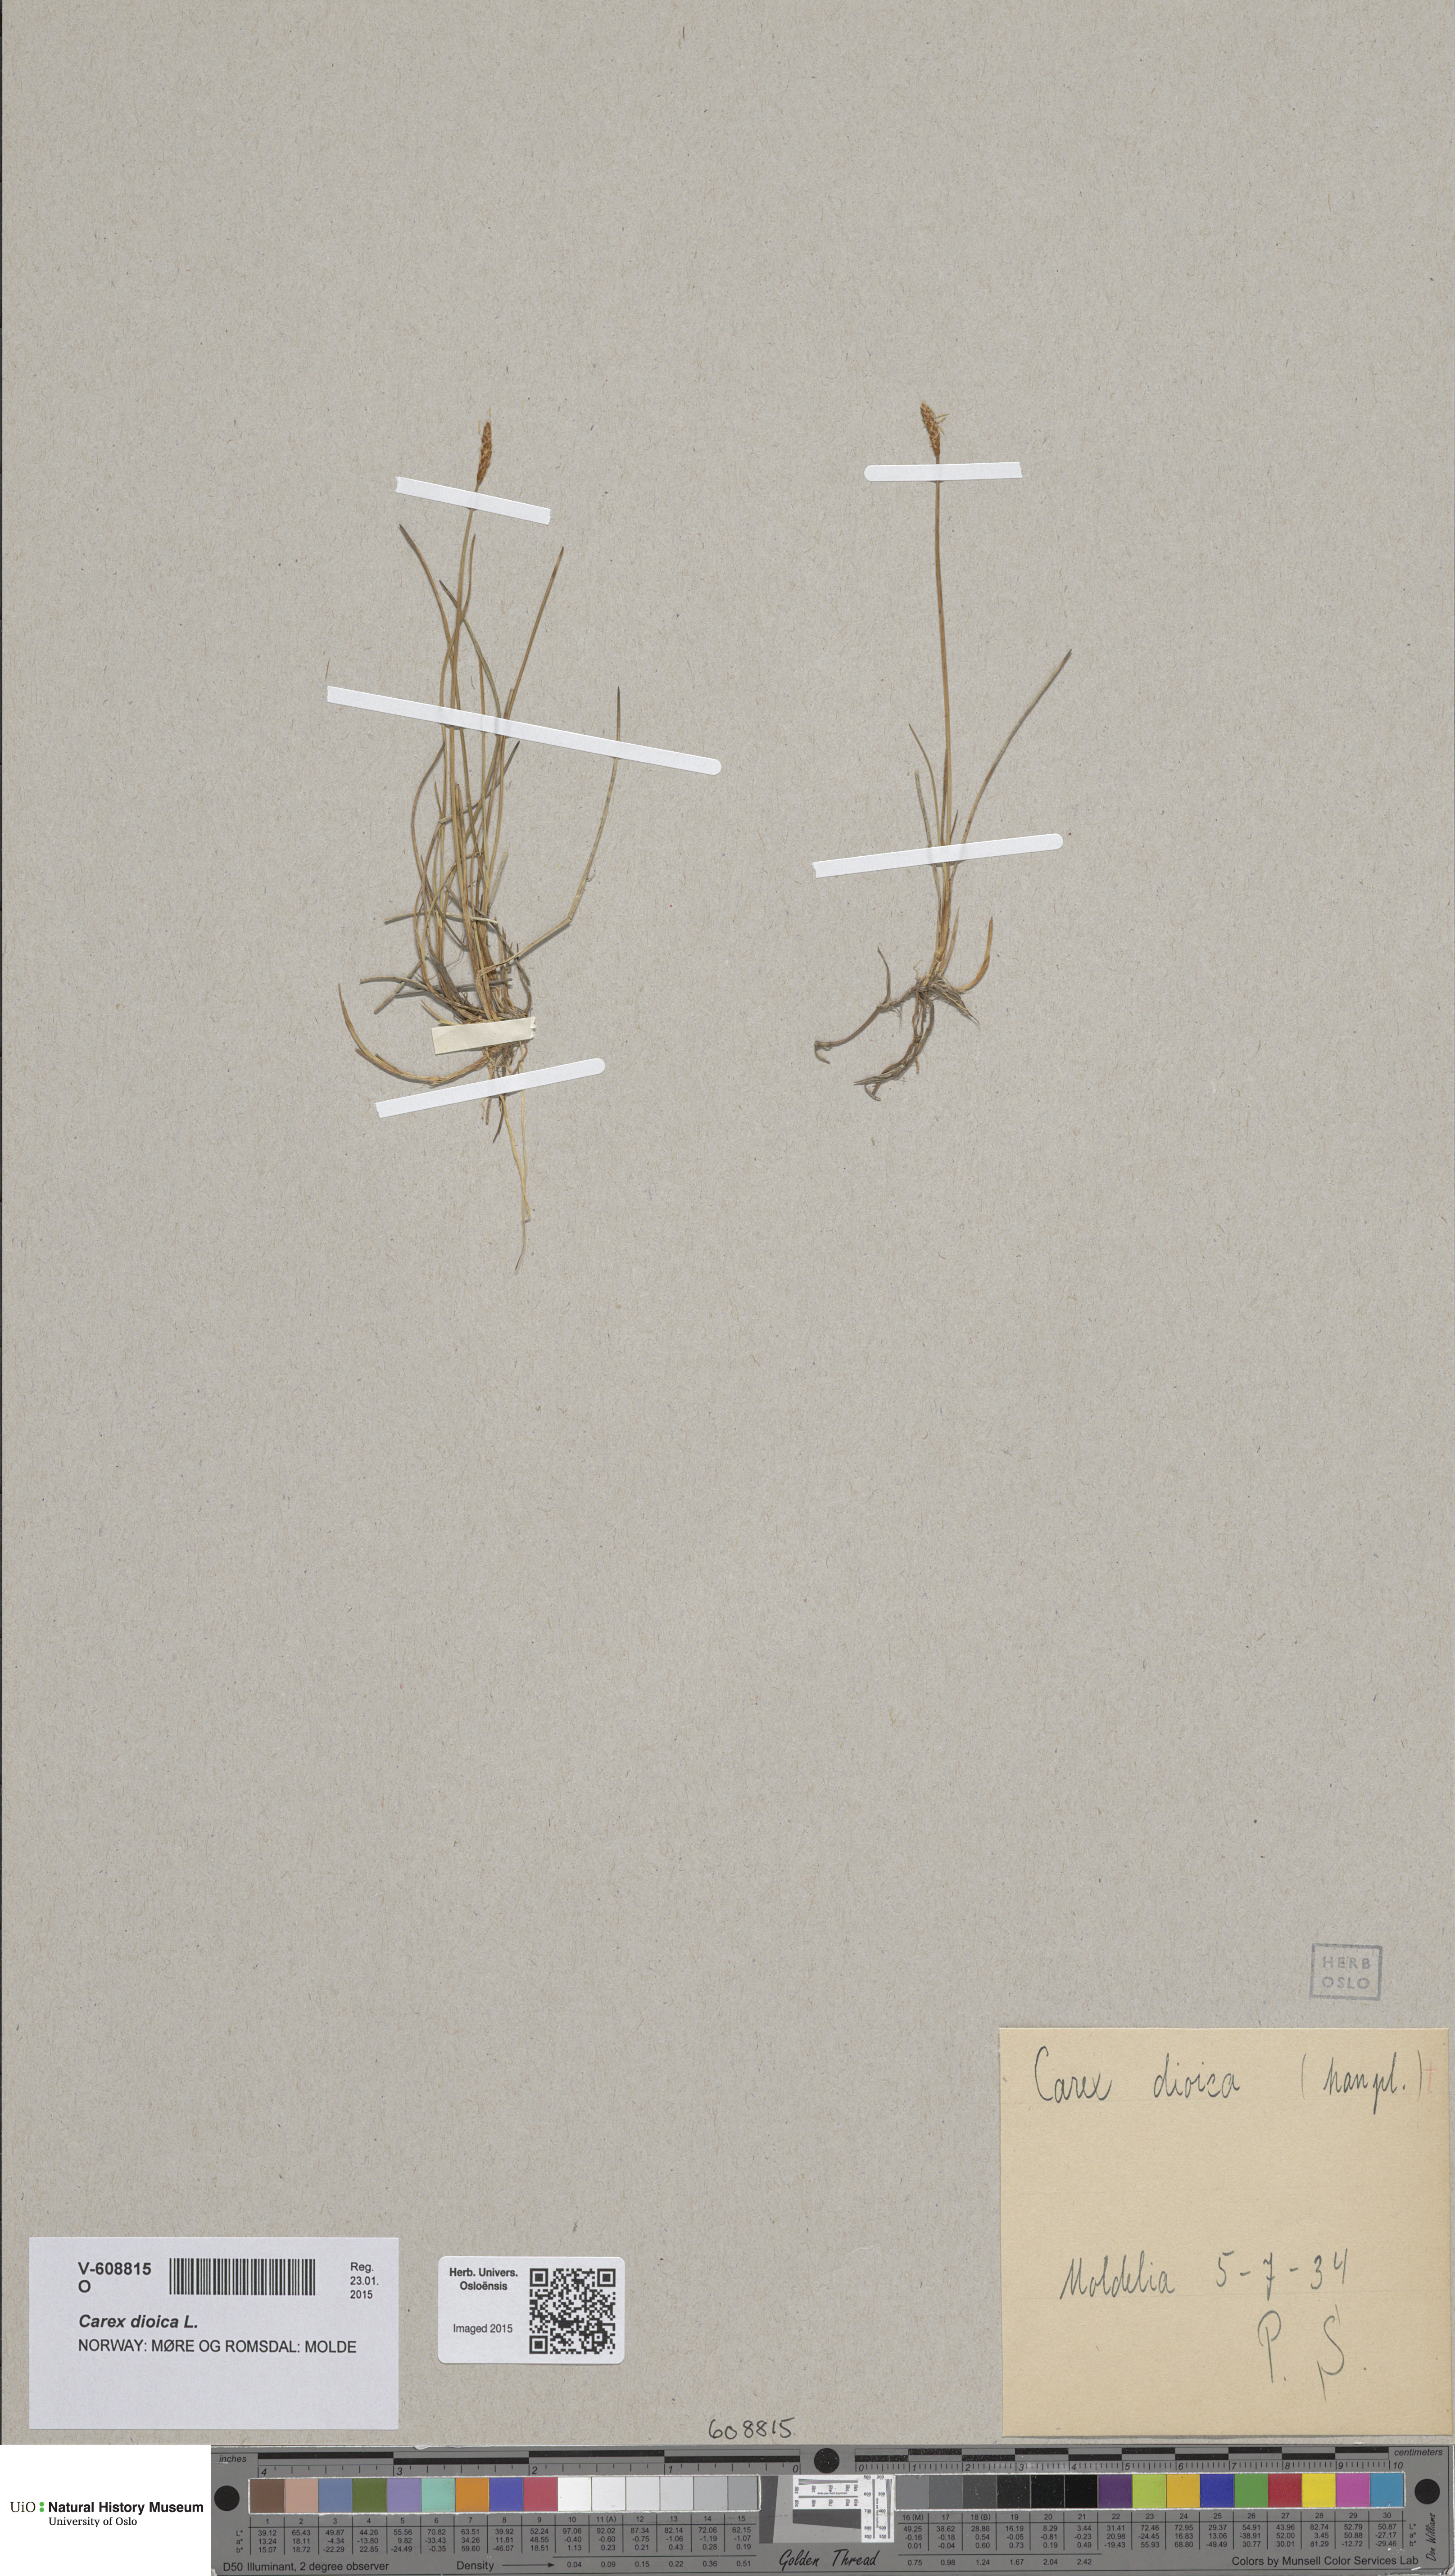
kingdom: Plantae
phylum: Tracheophyta
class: Liliopsida
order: Poales
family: Cyperaceae
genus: Carex
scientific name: Carex dioica
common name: Dioecious sedge
